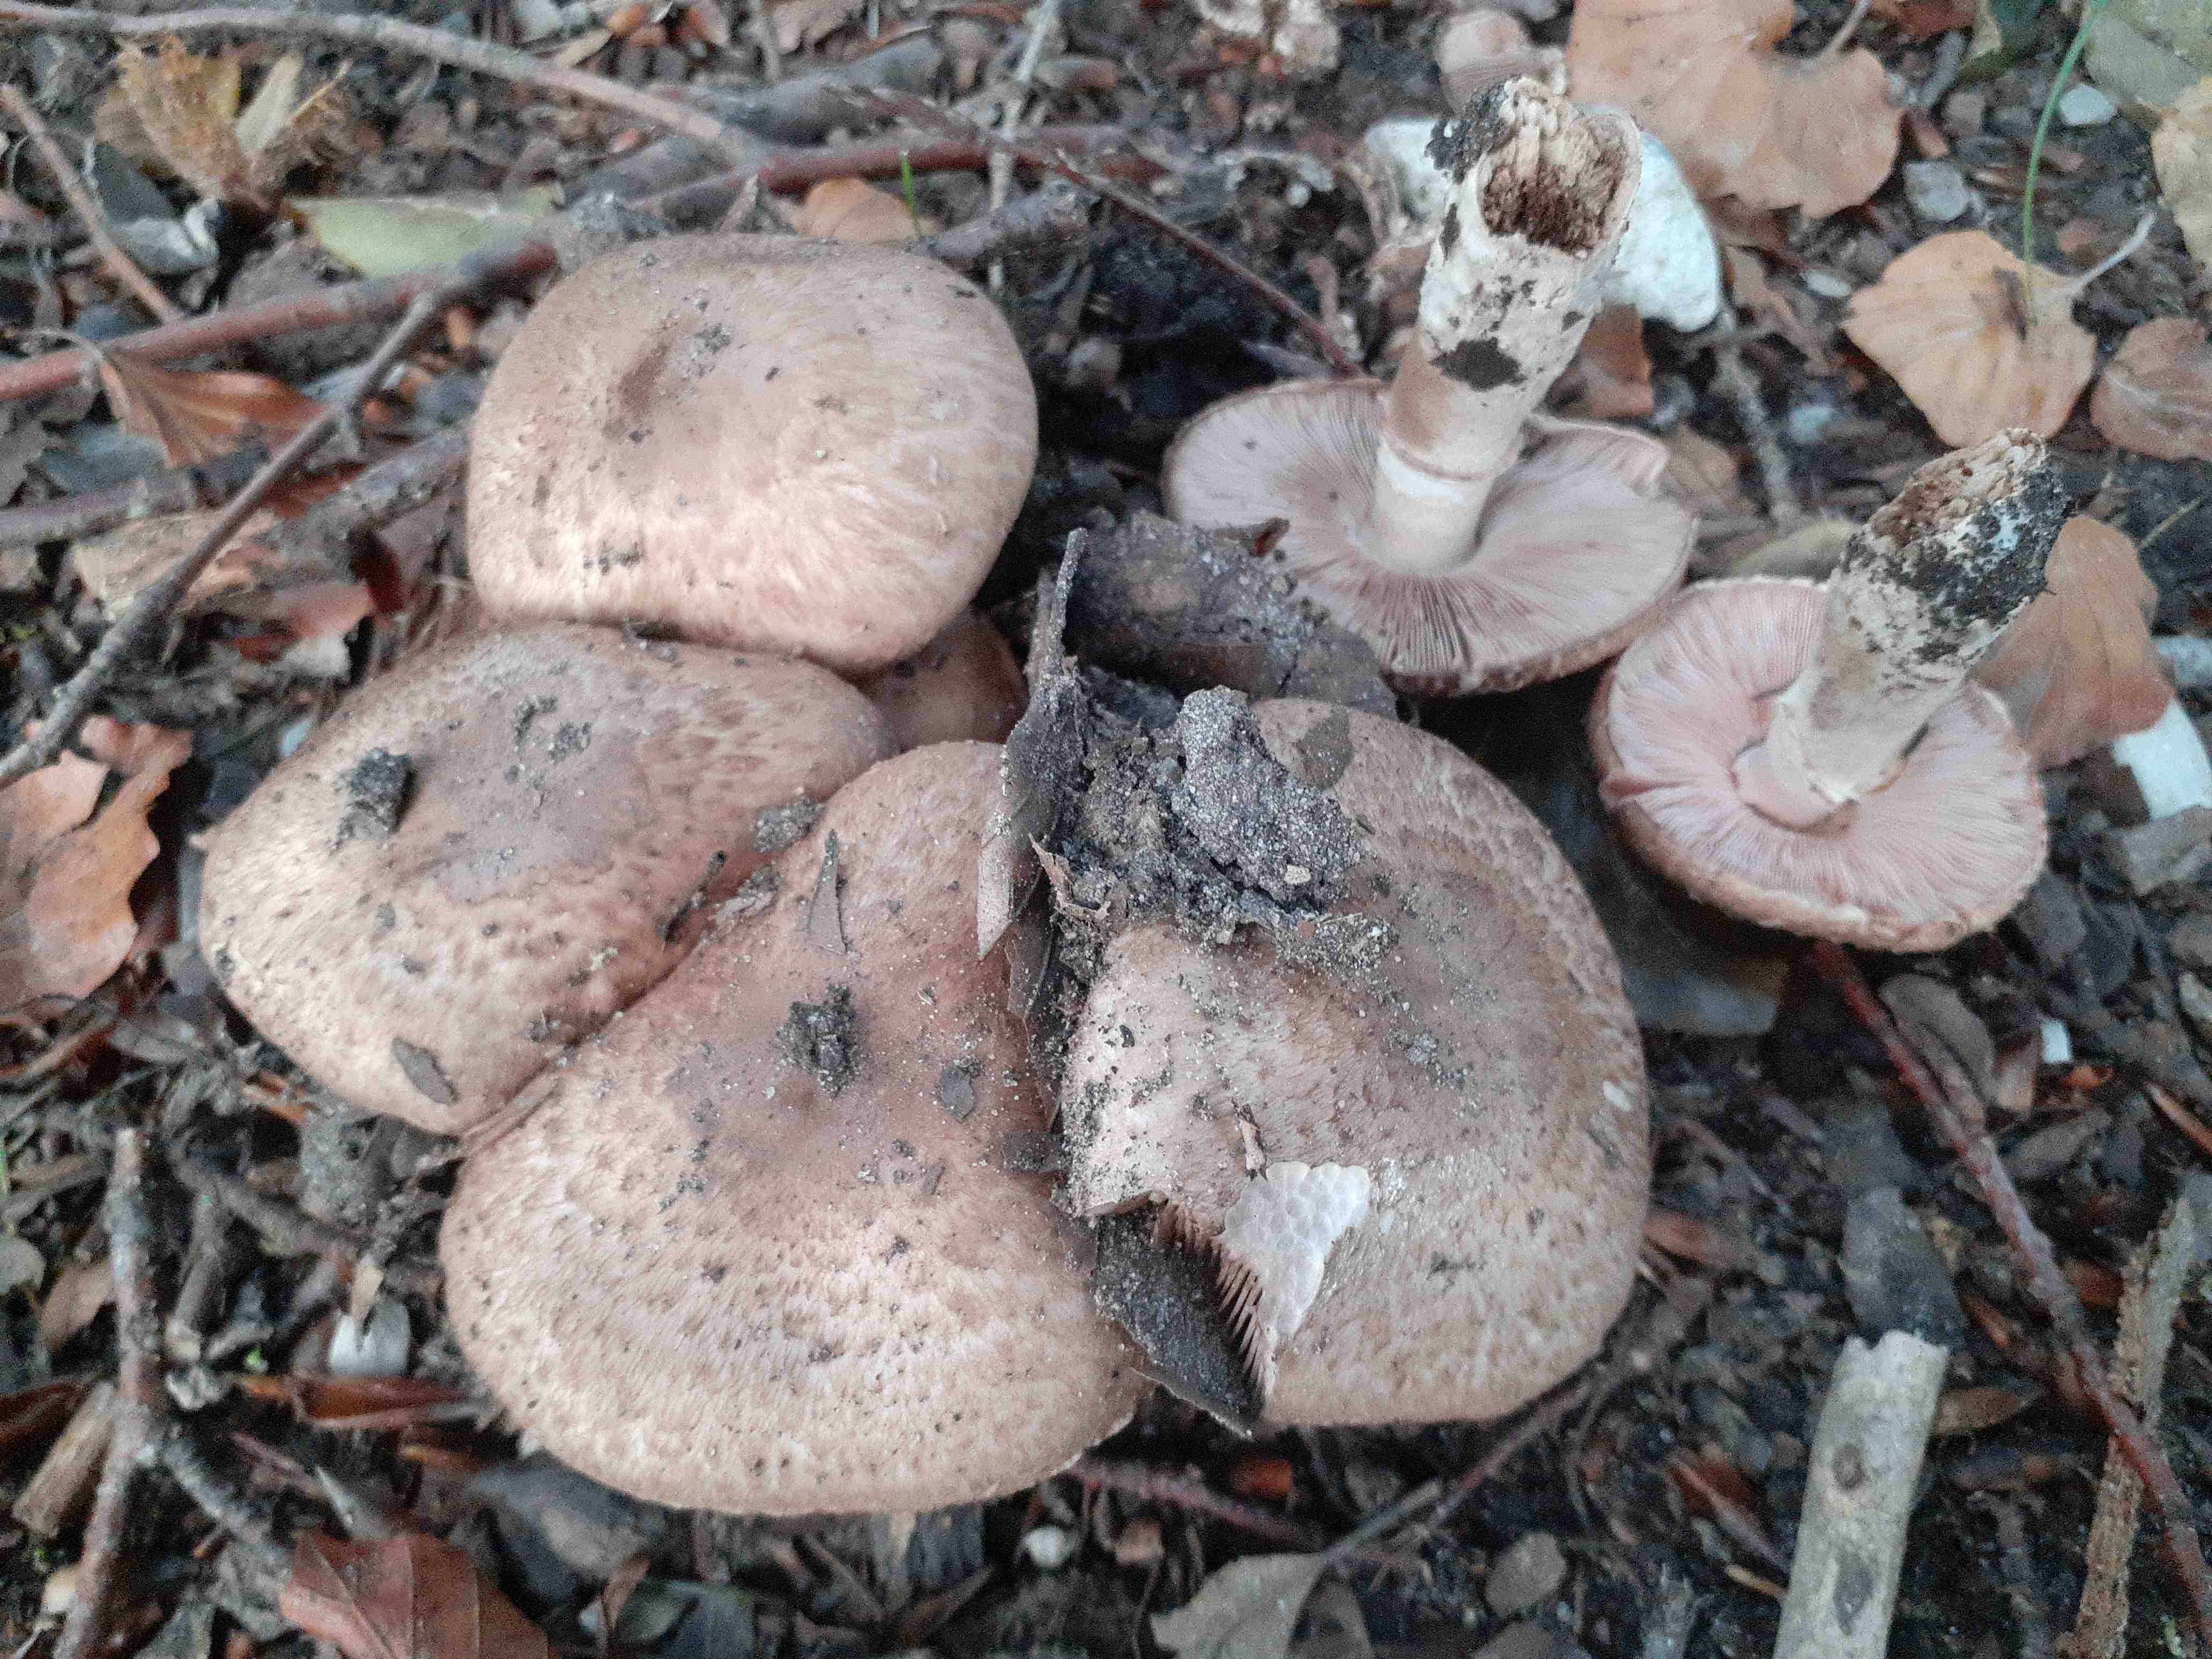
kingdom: Fungi
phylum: Basidiomycota
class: Agaricomycetes
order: Agaricales
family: Agaricaceae
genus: Agaricus
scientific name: Agaricus sylvaticus
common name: lille blod-champignon
